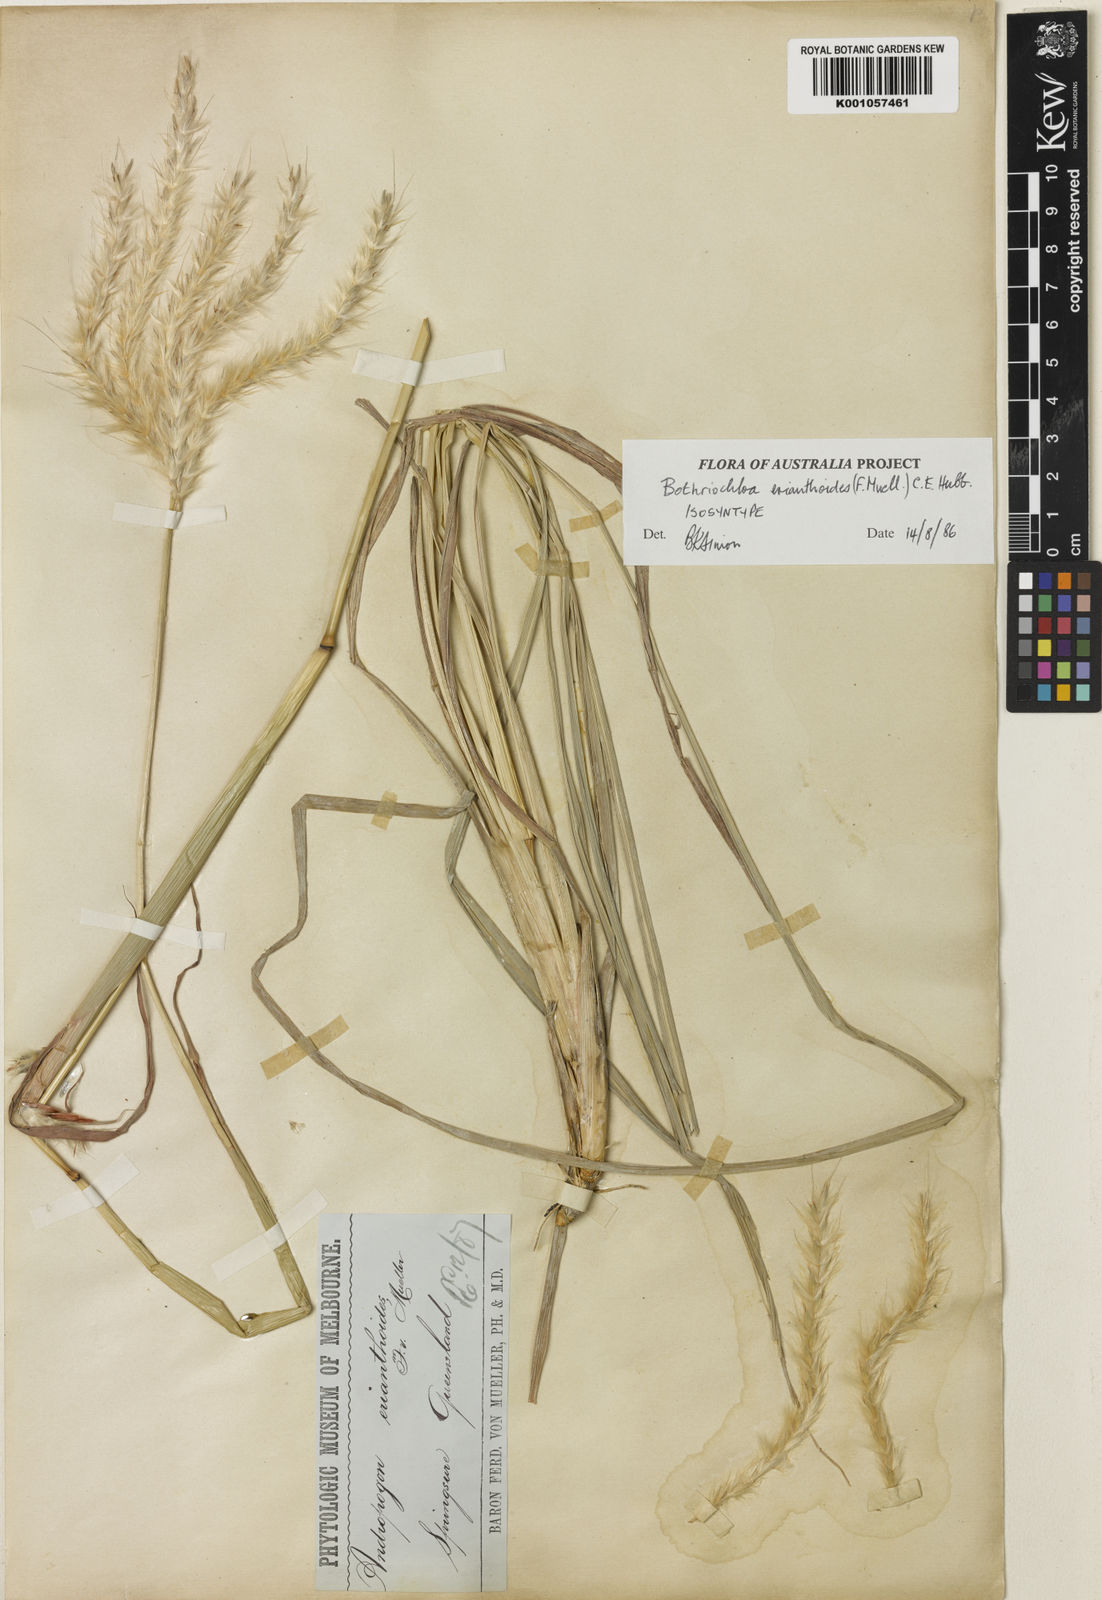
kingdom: Plantae
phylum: Tracheophyta
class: Liliopsida
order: Poales
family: Poaceae
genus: Bothriochloa
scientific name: Bothriochloa erianthoides
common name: Satin-top grass
